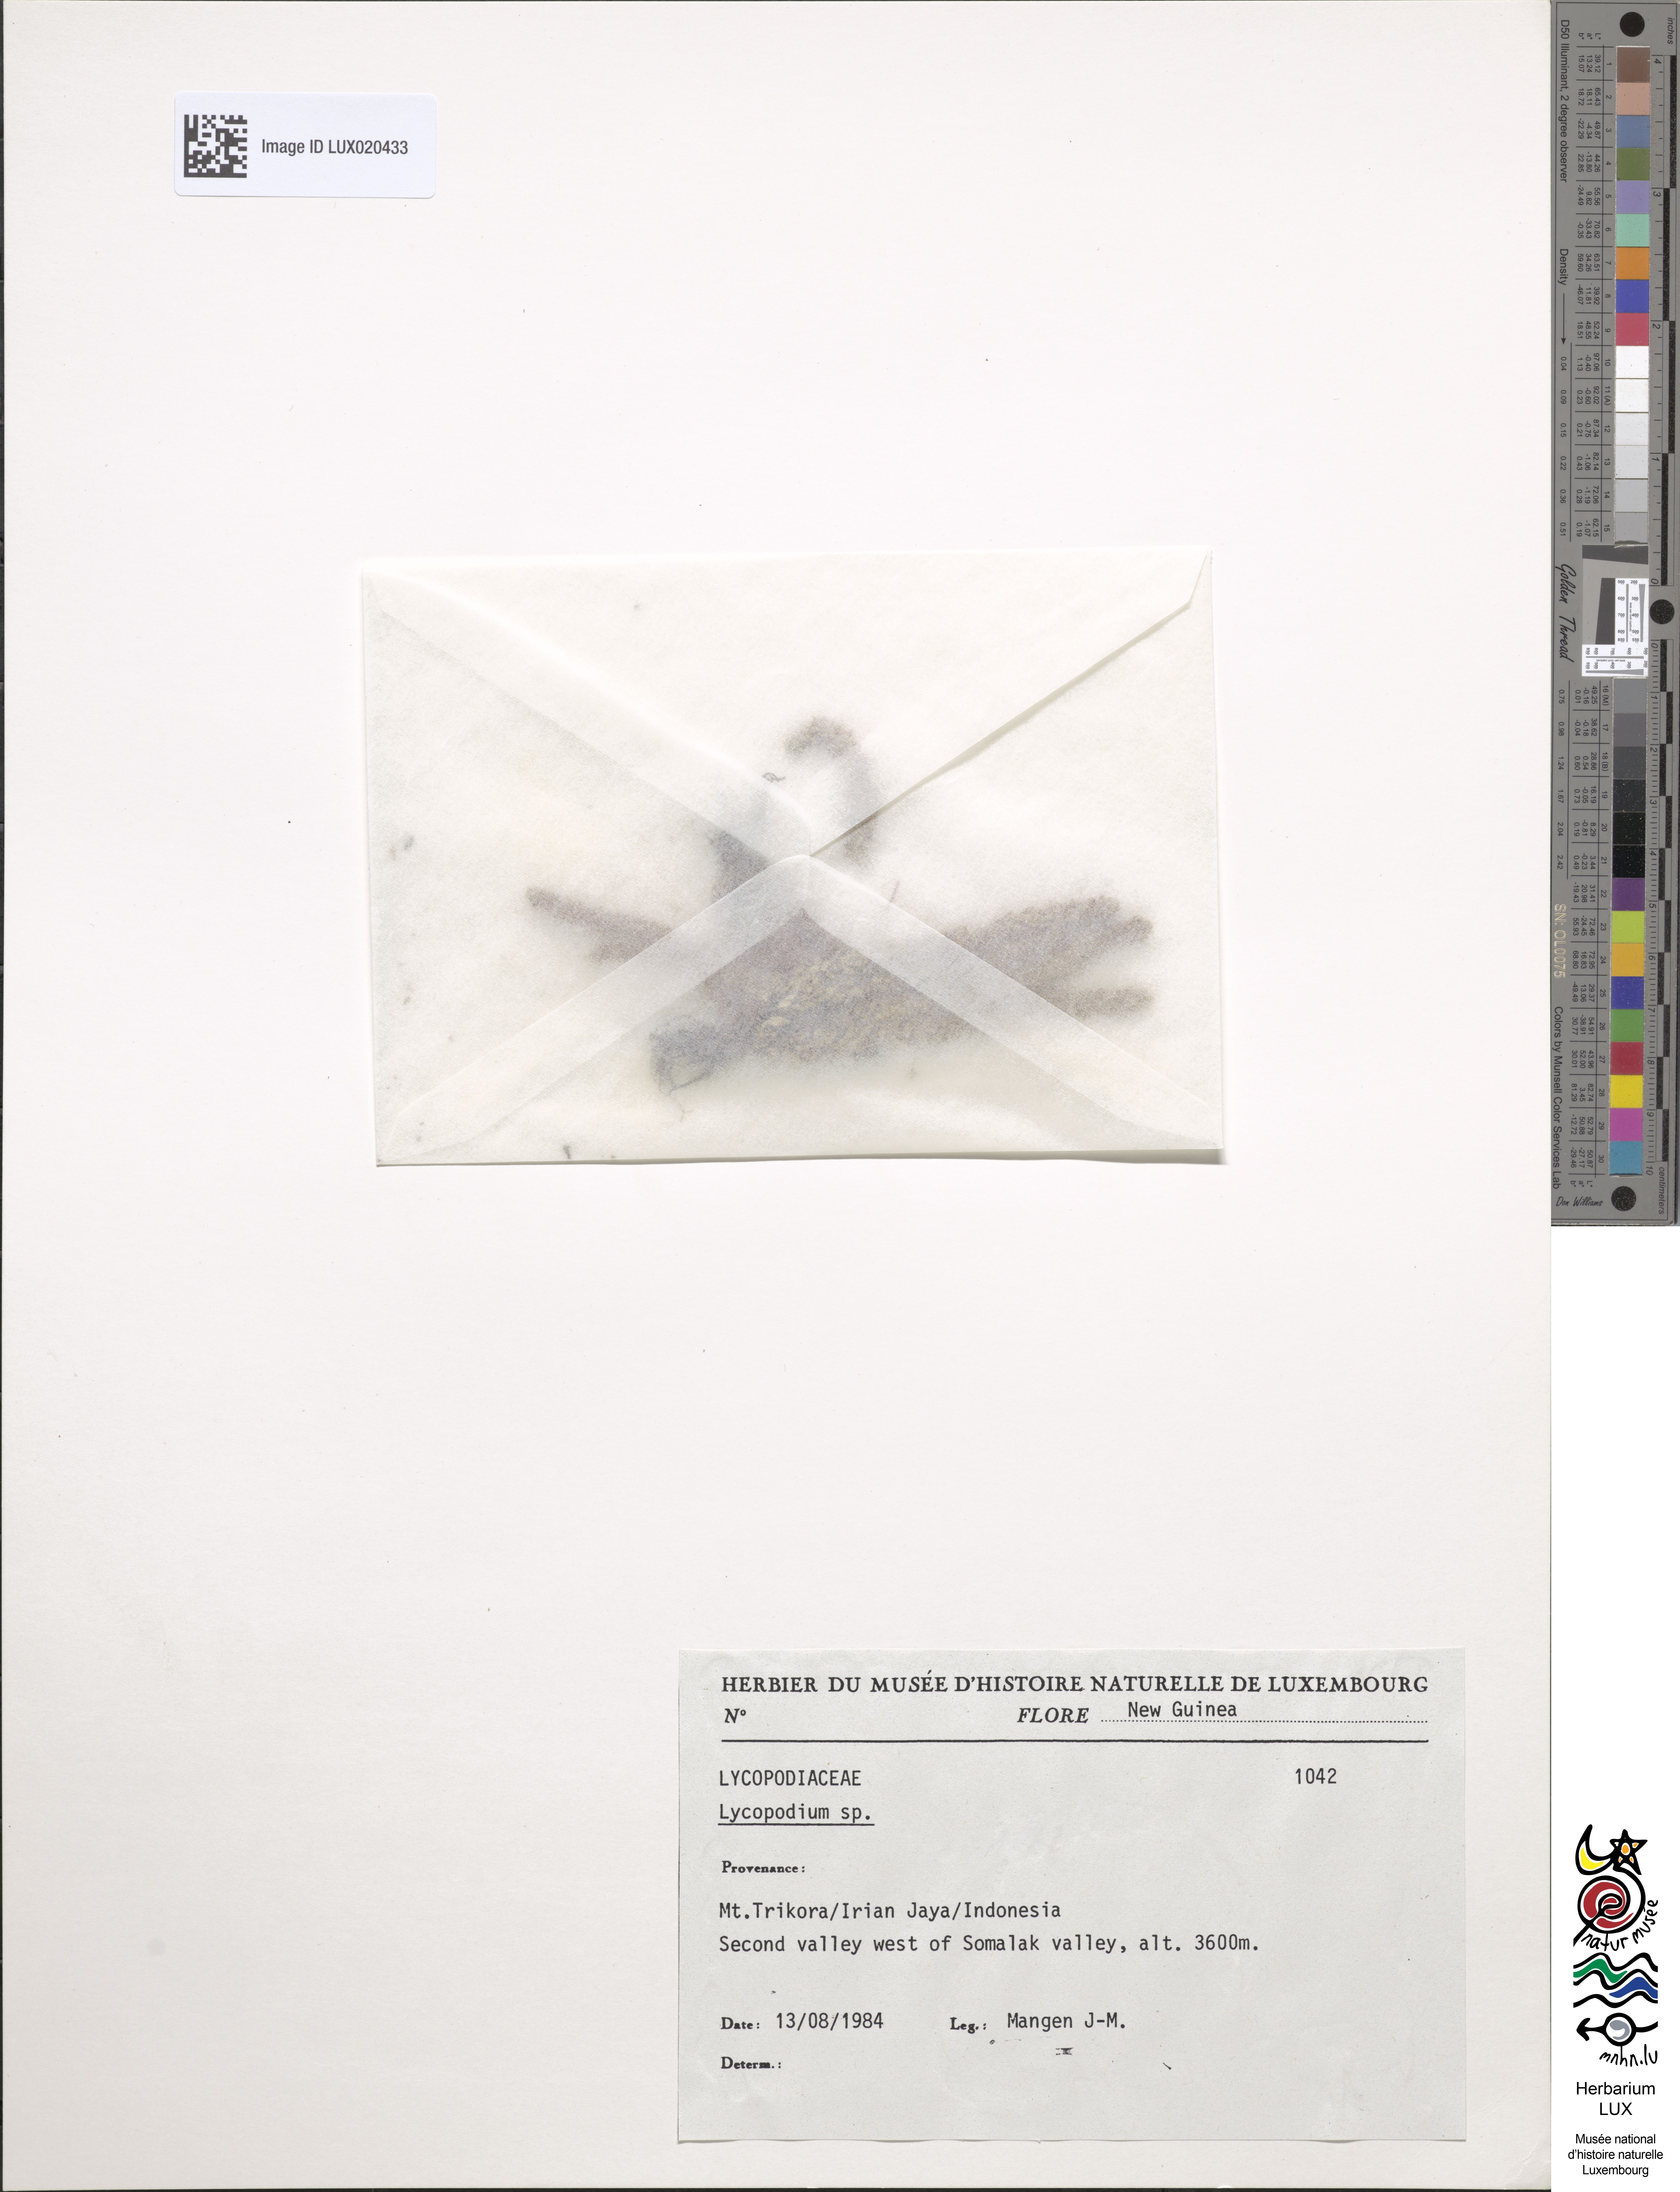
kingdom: Plantae
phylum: Tracheophyta
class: Lycopodiopsida
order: Lycopodiales
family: Lycopodiaceae
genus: Lycopodium
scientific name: Lycopodium
